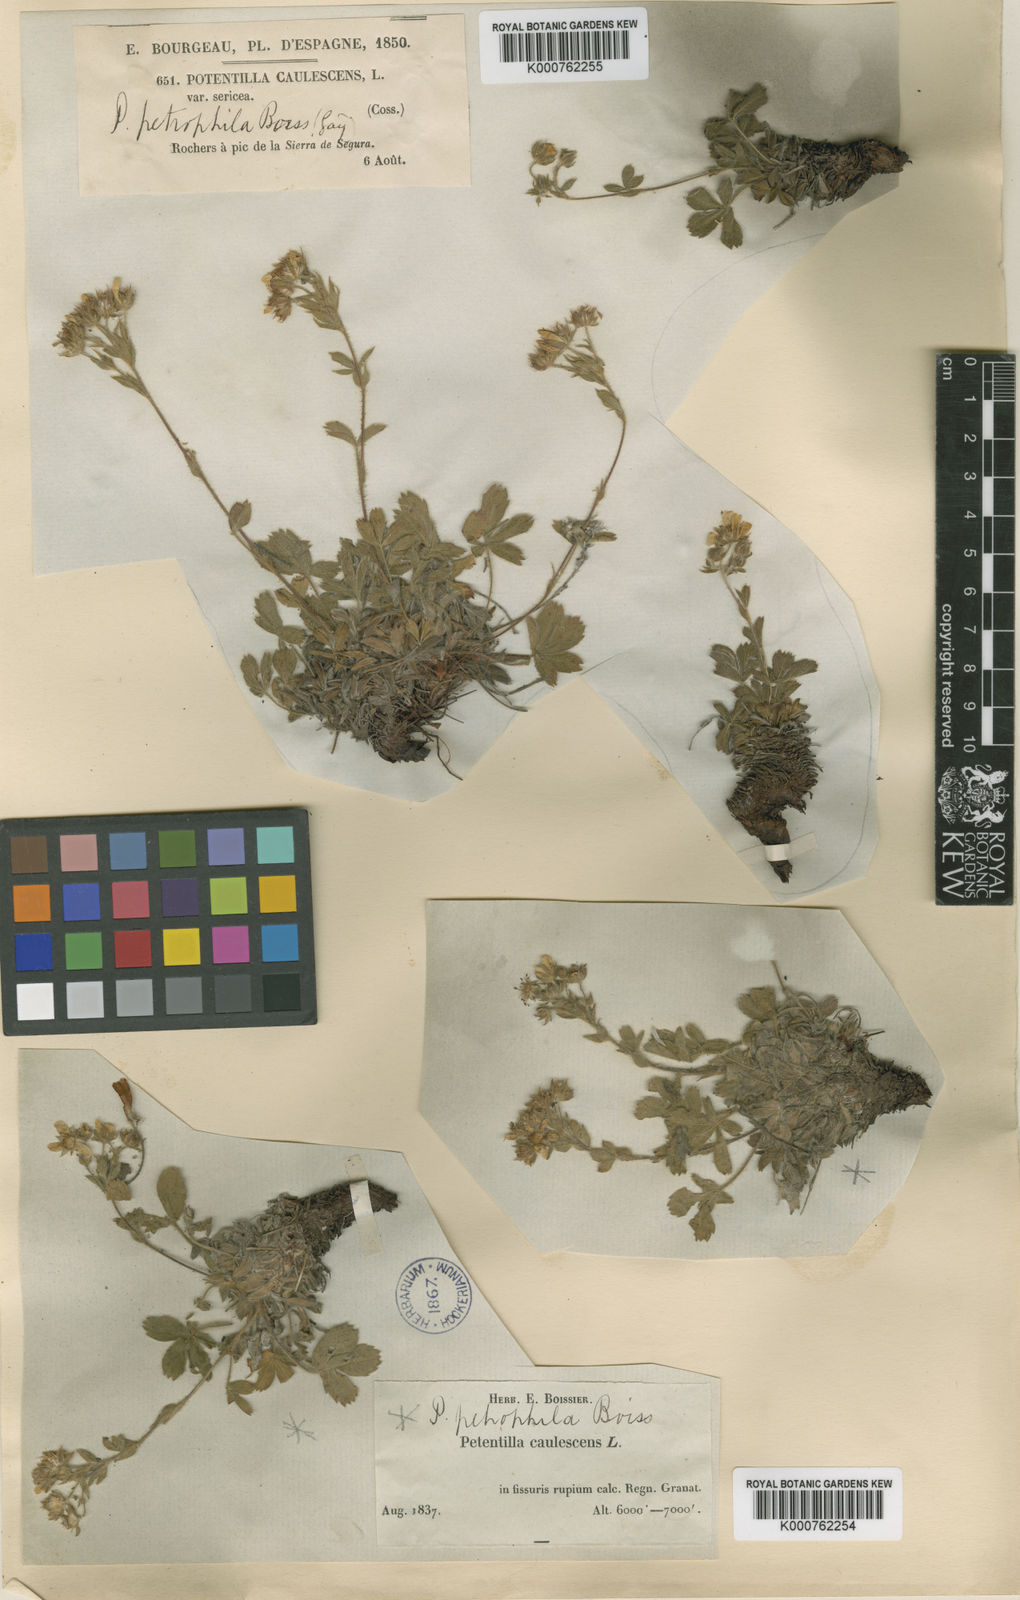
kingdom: Plantae
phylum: Tracheophyta
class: Magnoliopsida
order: Rosales
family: Rosaceae
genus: Potentilla
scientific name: Potentilla caulescens
